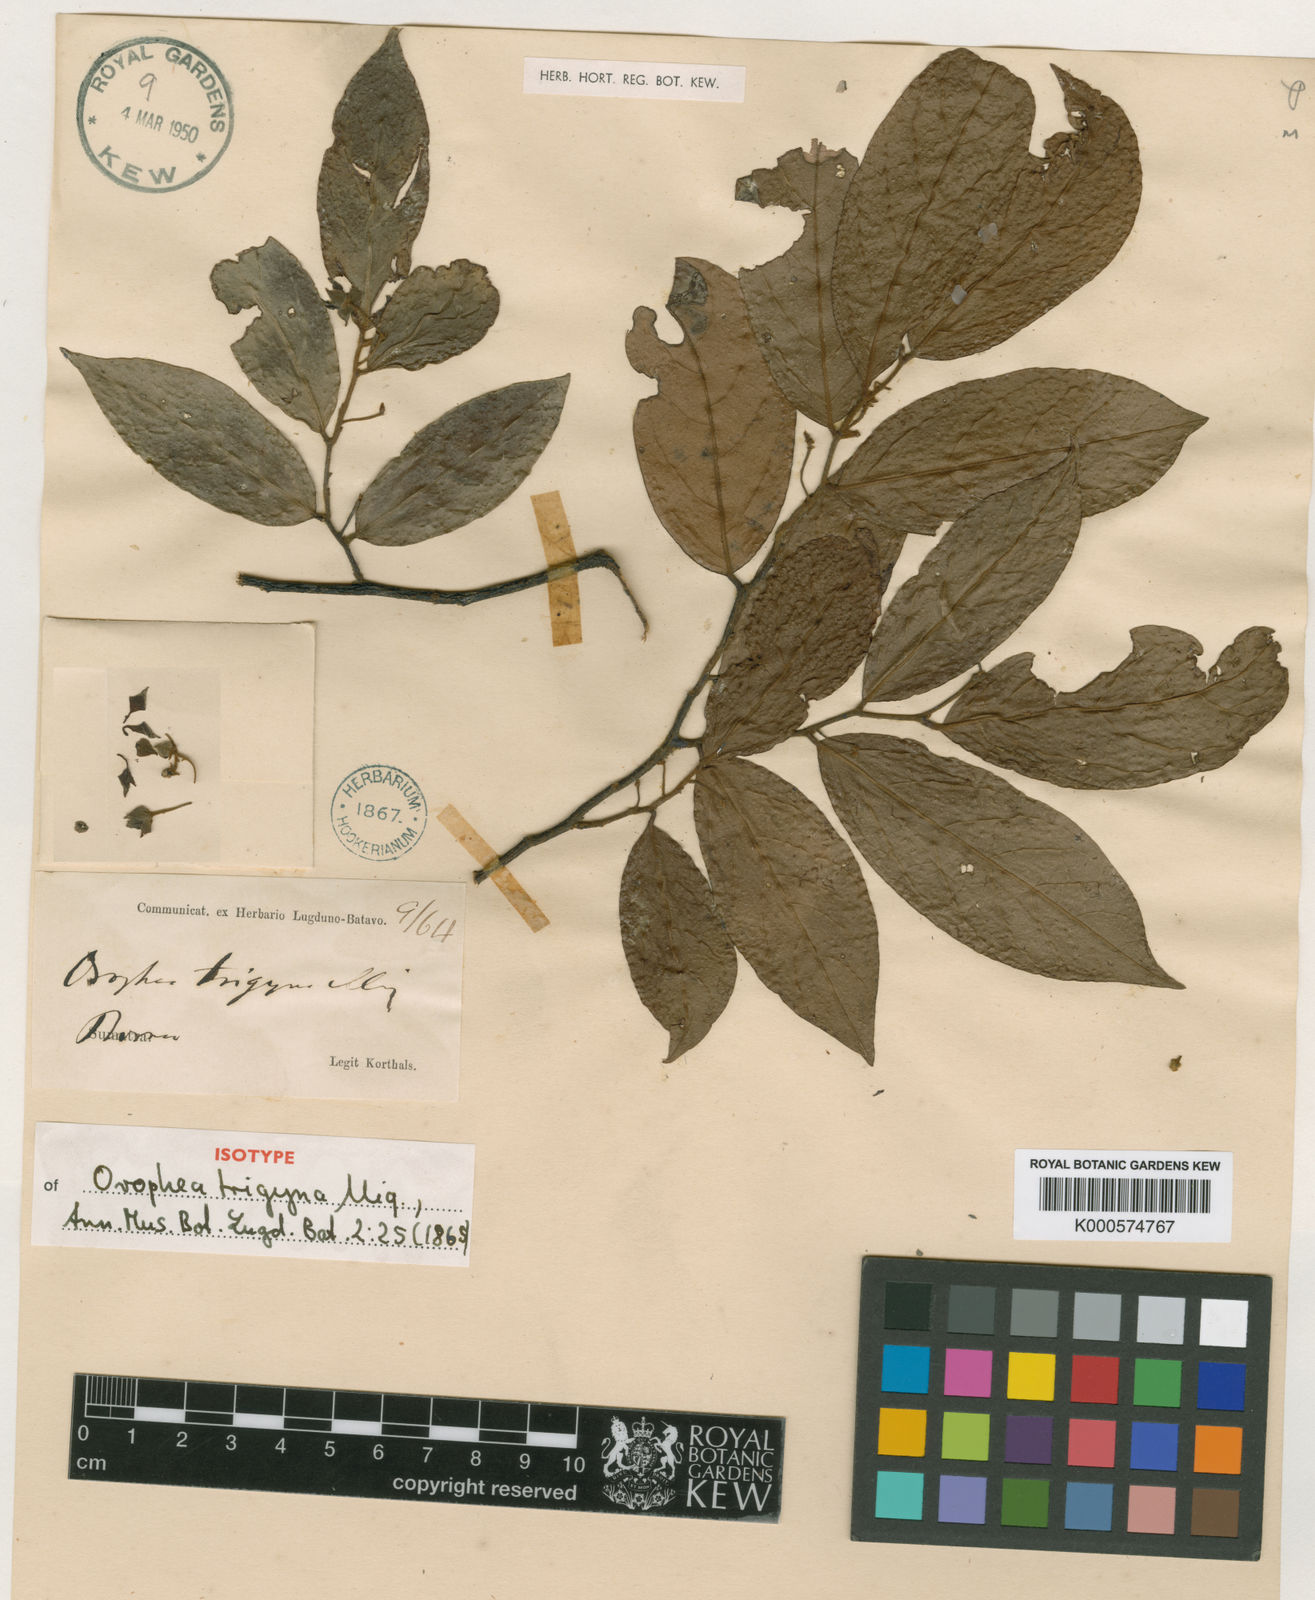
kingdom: Plantae
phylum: Tracheophyta
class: Magnoliopsida
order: Magnoliales
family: Annonaceae
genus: Orophea
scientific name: Orophea trigyna
